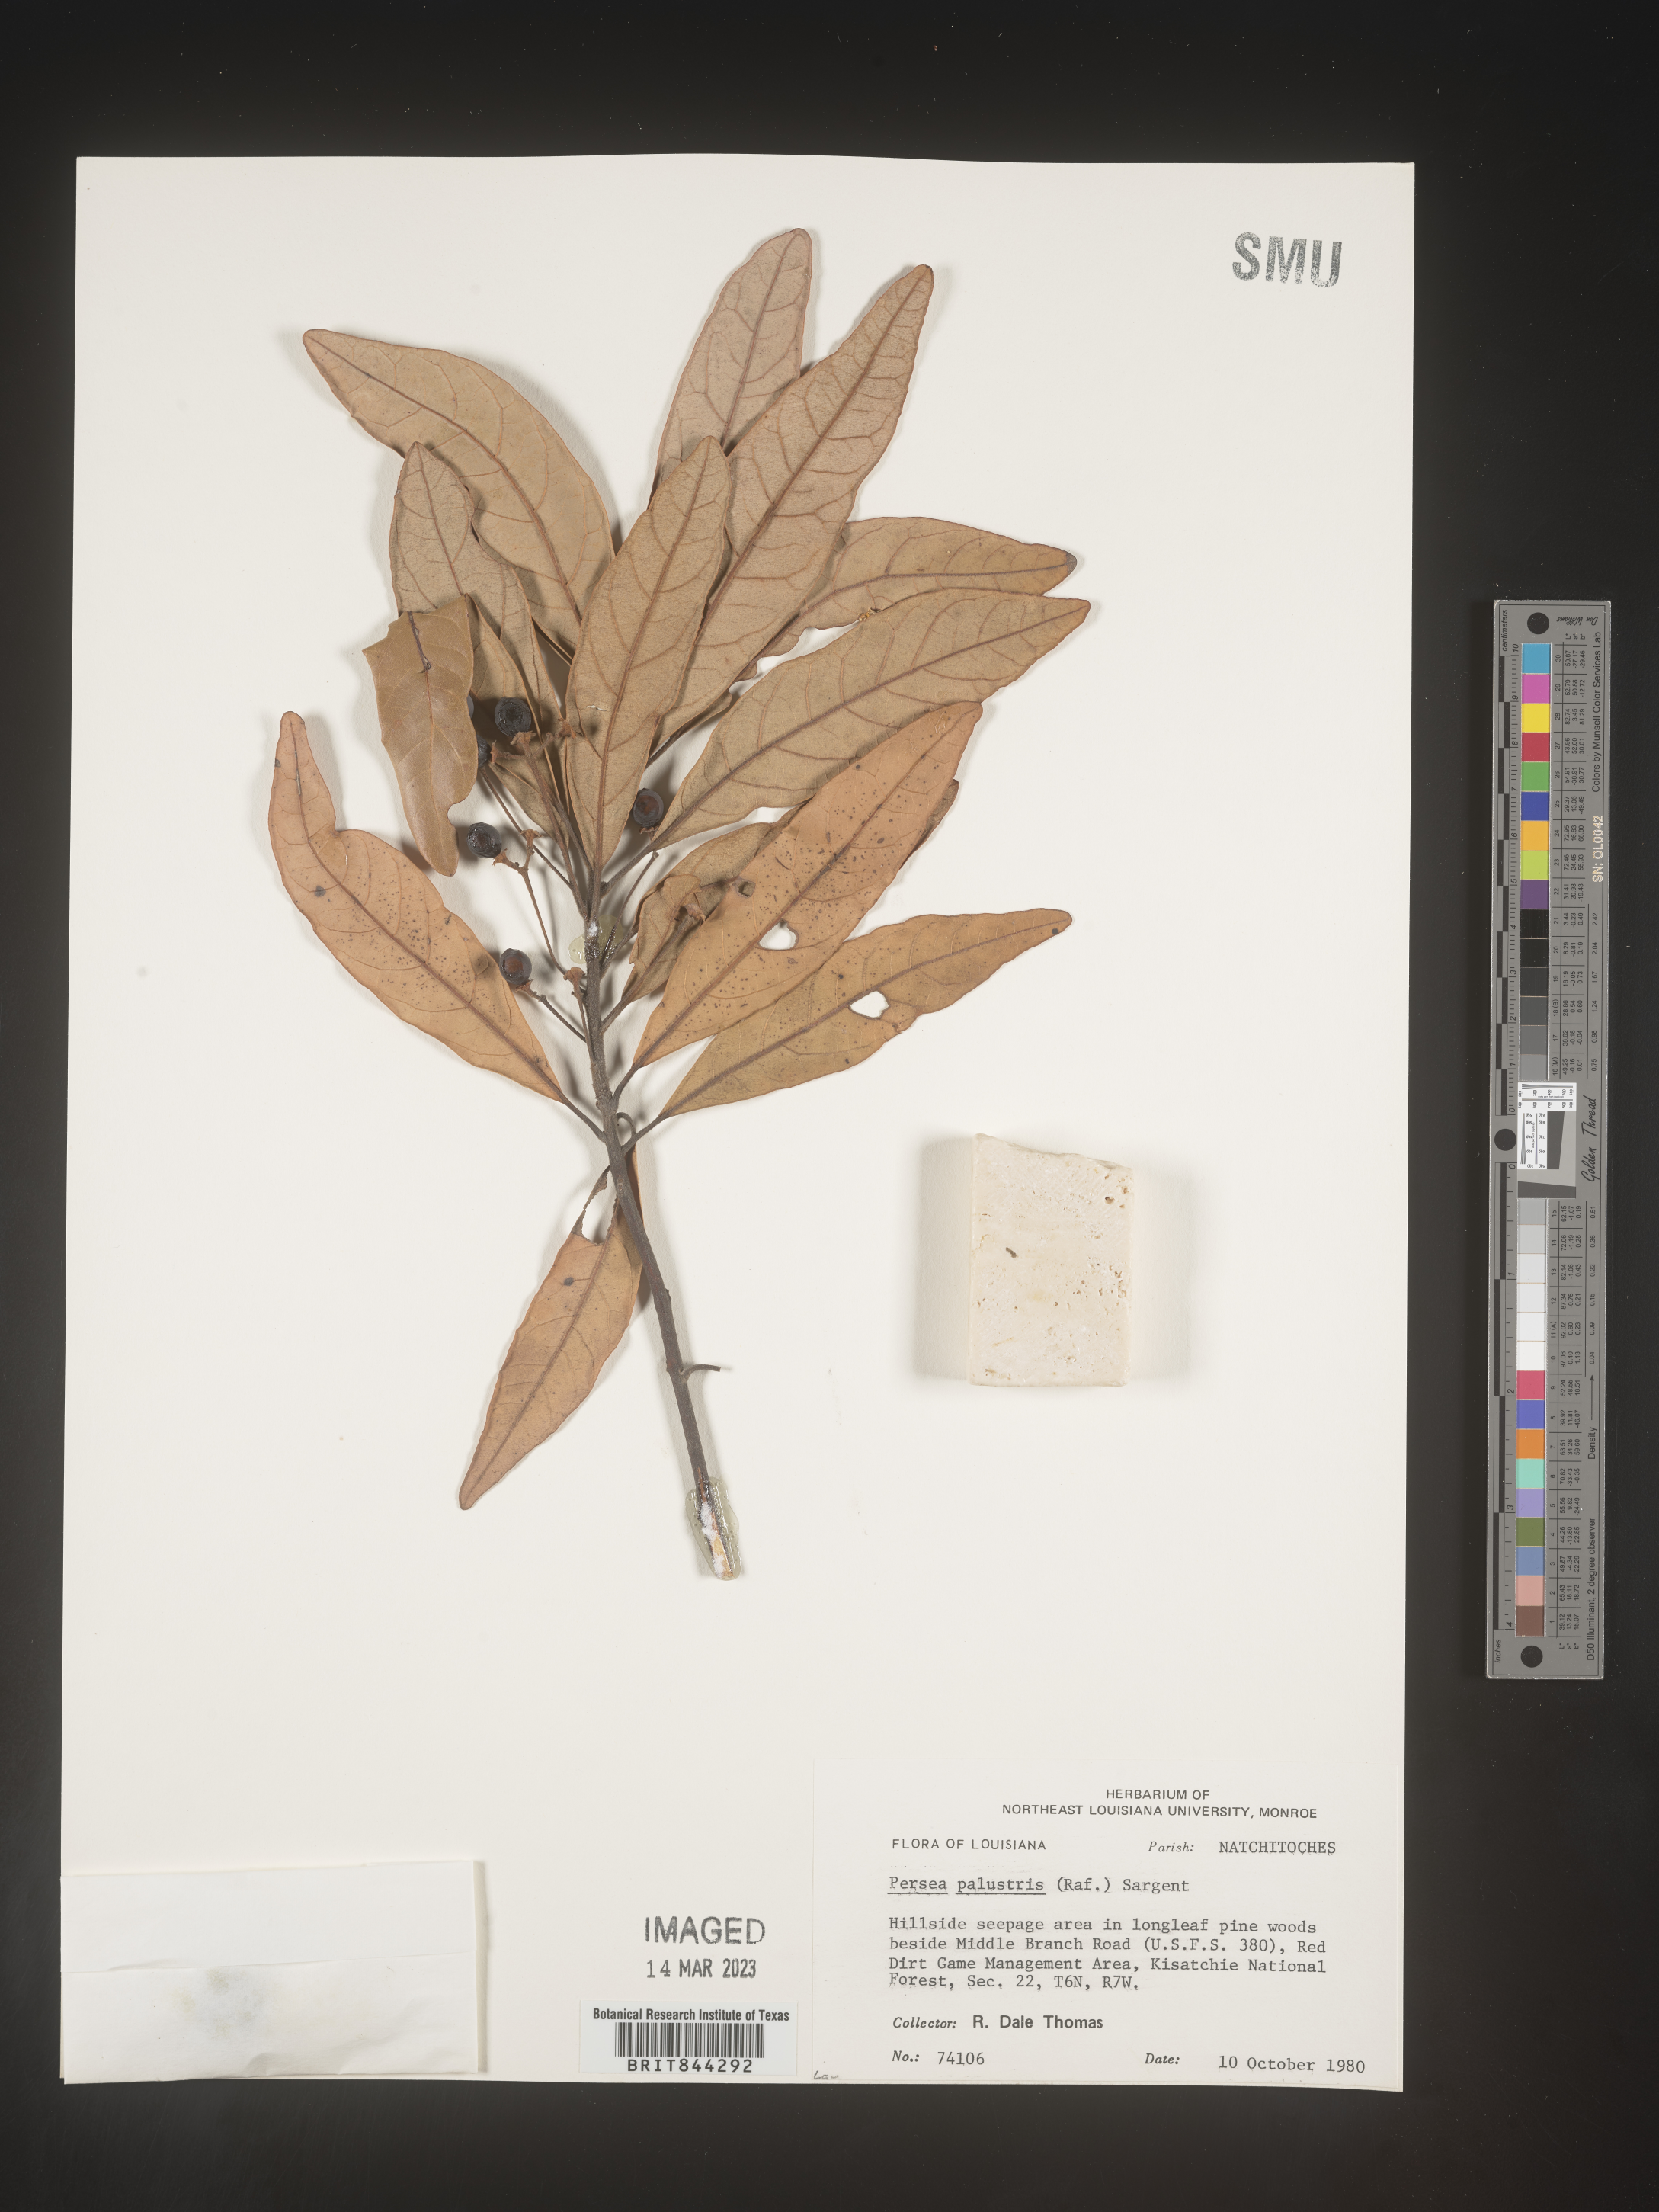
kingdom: Plantae
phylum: Tracheophyta
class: Magnoliopsida
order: Laurales
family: Lauraceae
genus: Persea
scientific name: Persea palustris
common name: Swampbay
